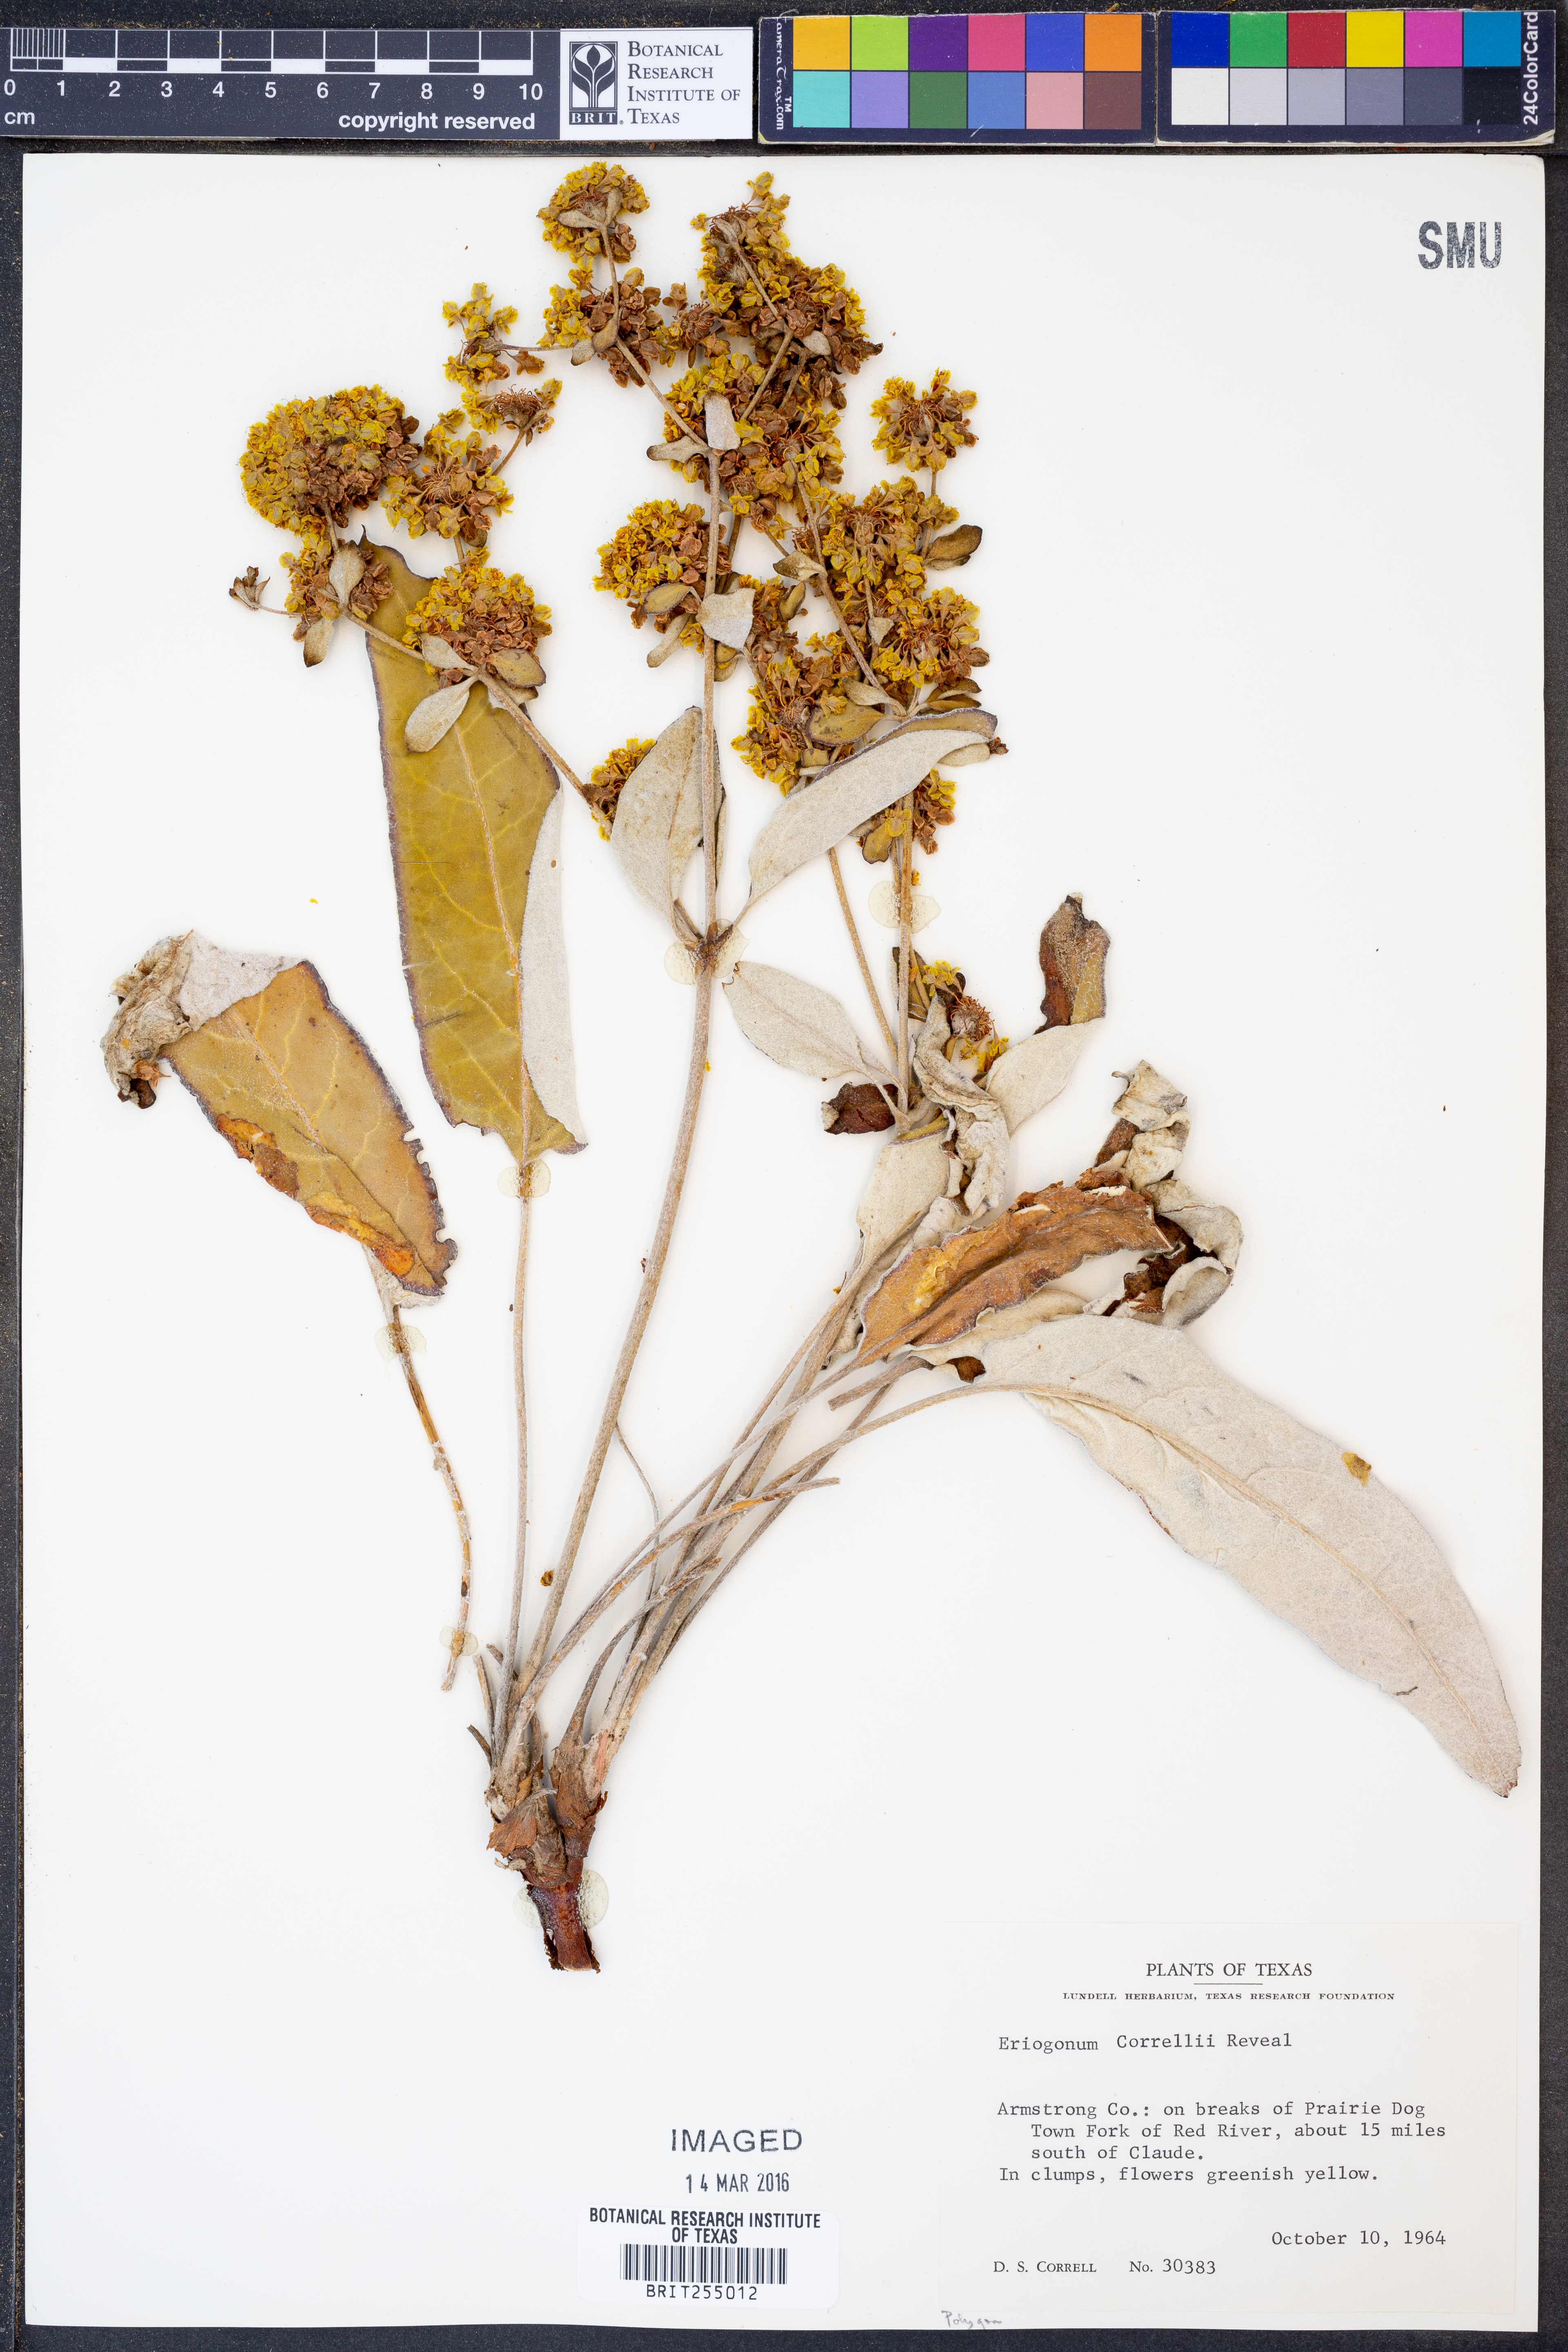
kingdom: Plantae
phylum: Tracheophyta
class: Magnoliopsida
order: Caryophyllales
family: Polygonaceae
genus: Eriogonum
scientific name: Eriogonum correllii
